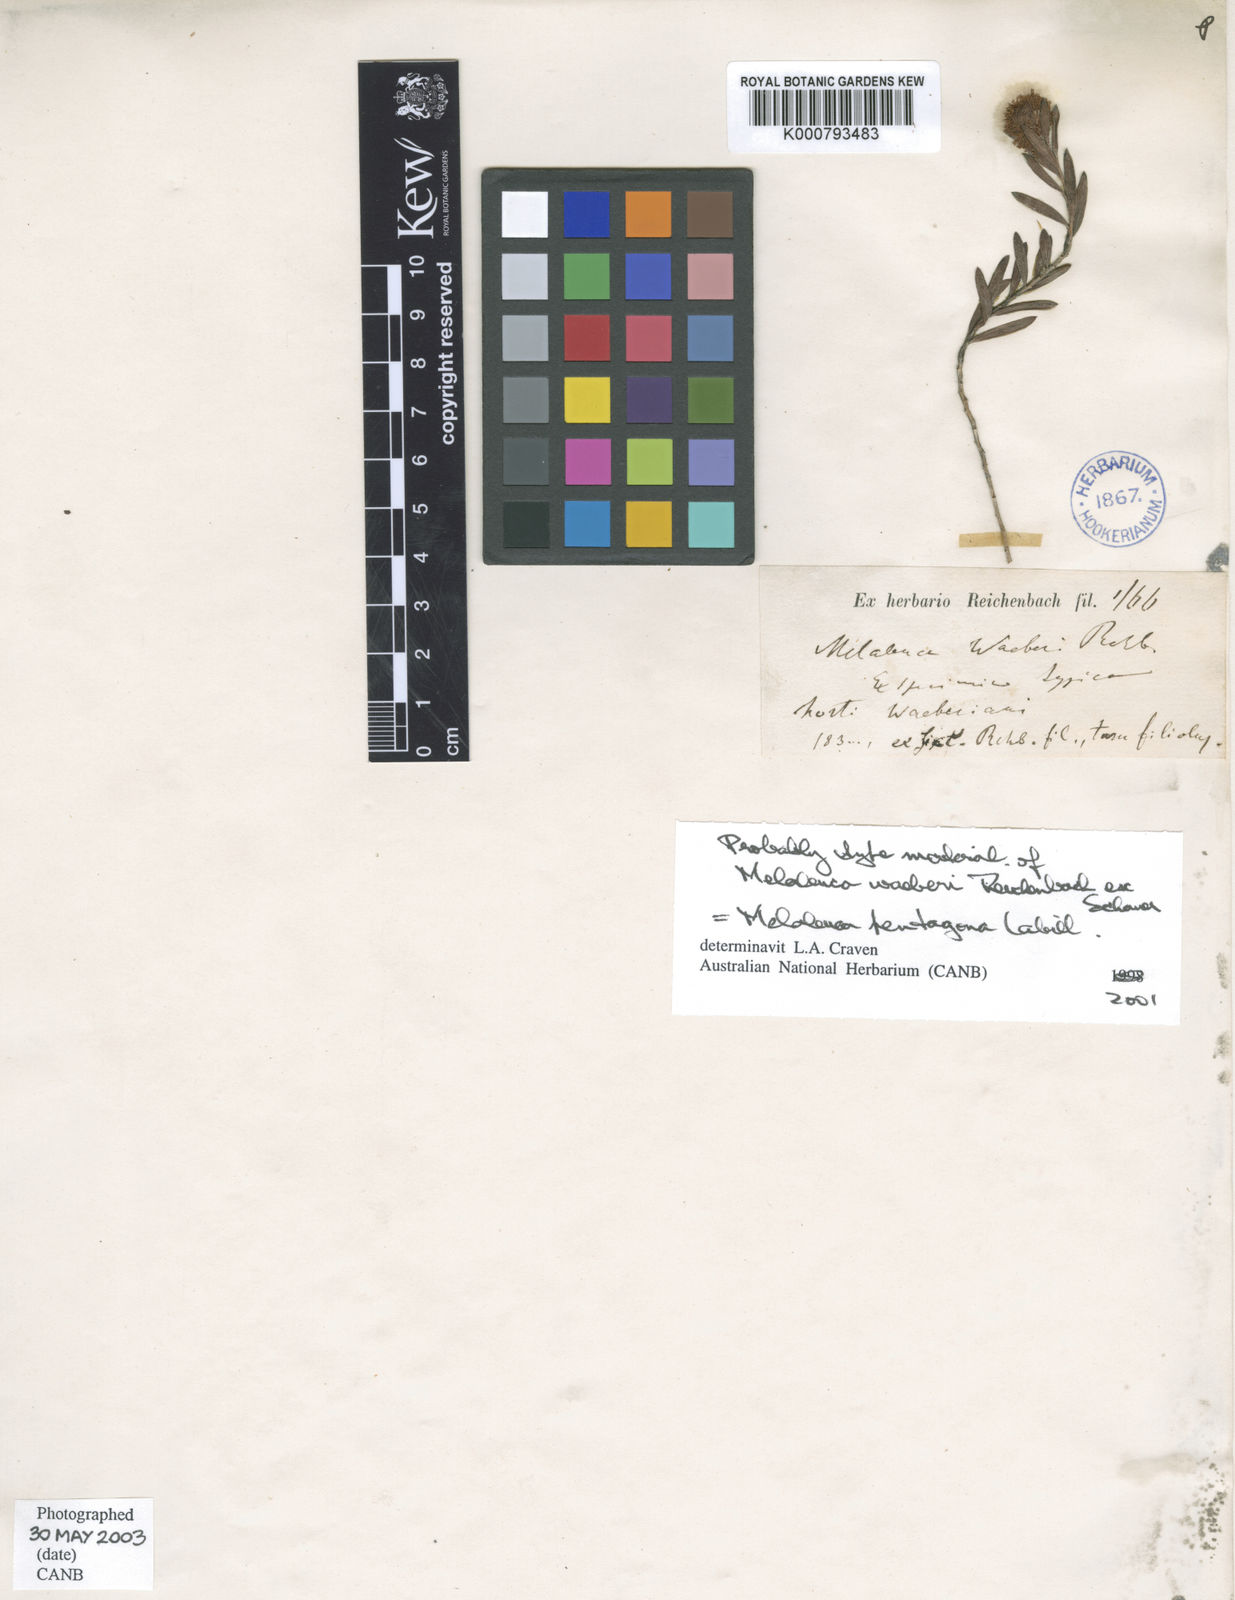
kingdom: Plantae
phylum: Tracheophyta
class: Magnoliopsida
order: Myrtales
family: Myrtaceae
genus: Melaleuca
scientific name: Melaleuca pentagona
